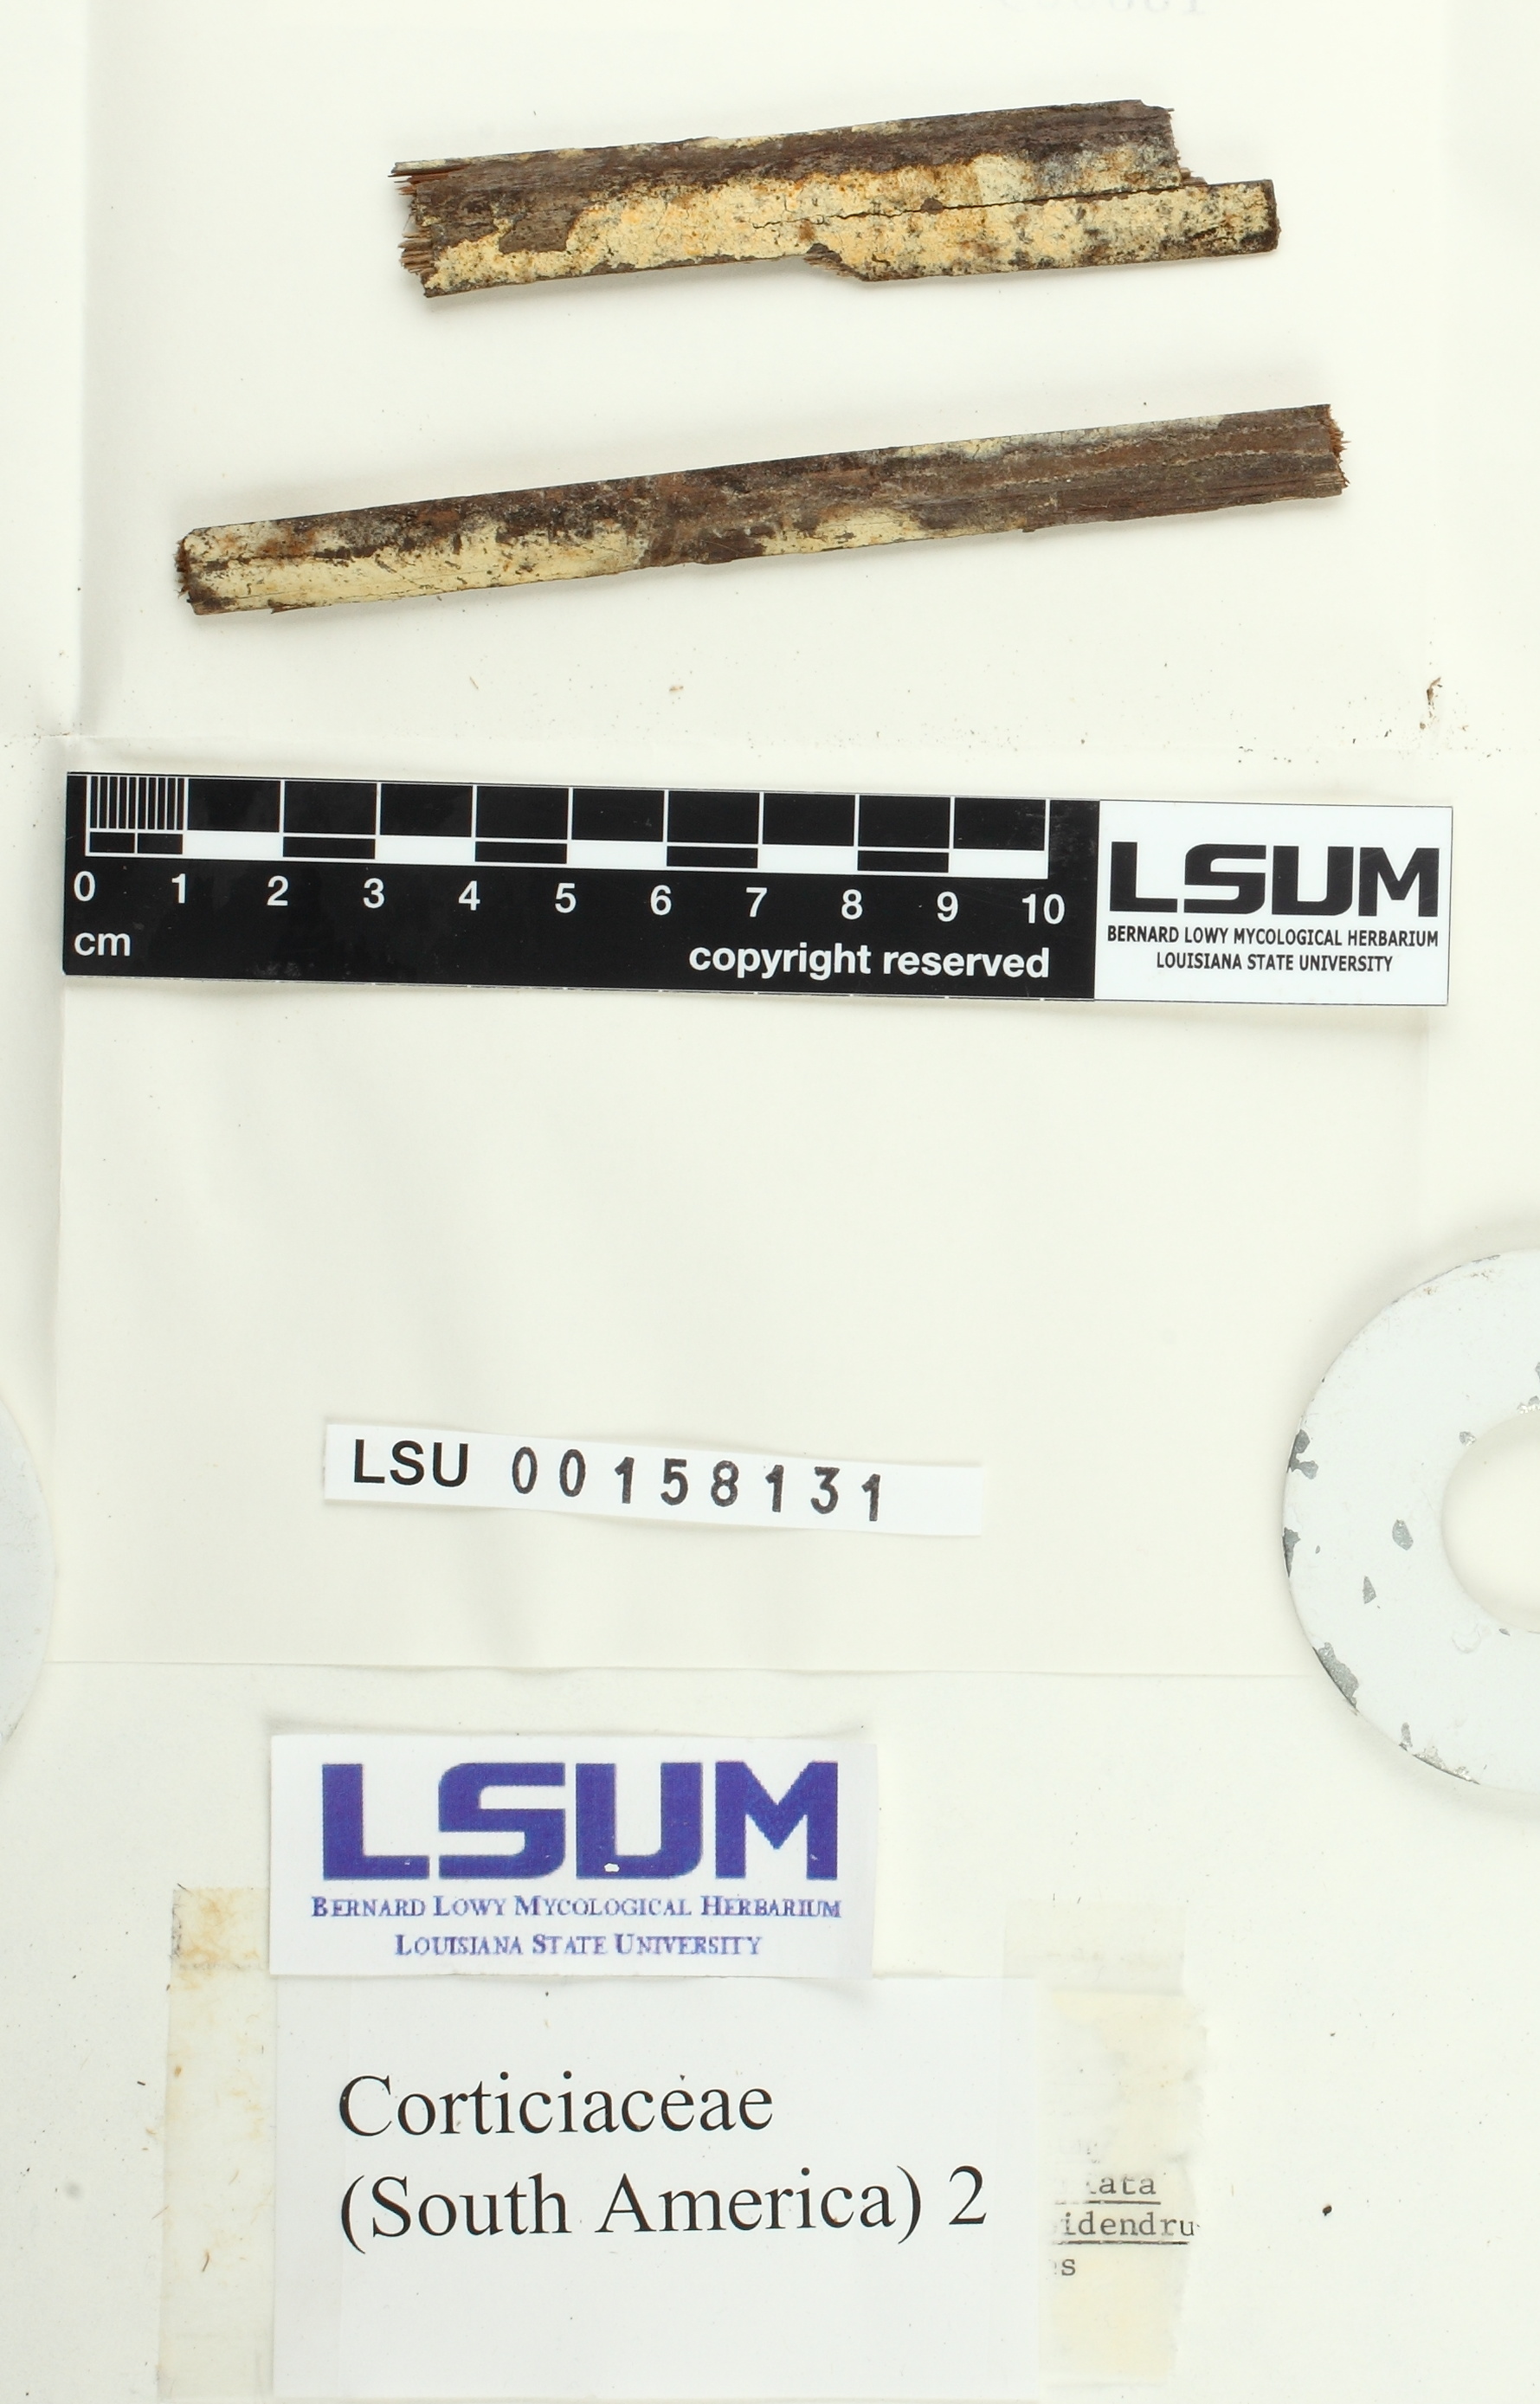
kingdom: Fungi
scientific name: Fungi
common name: Fungi
